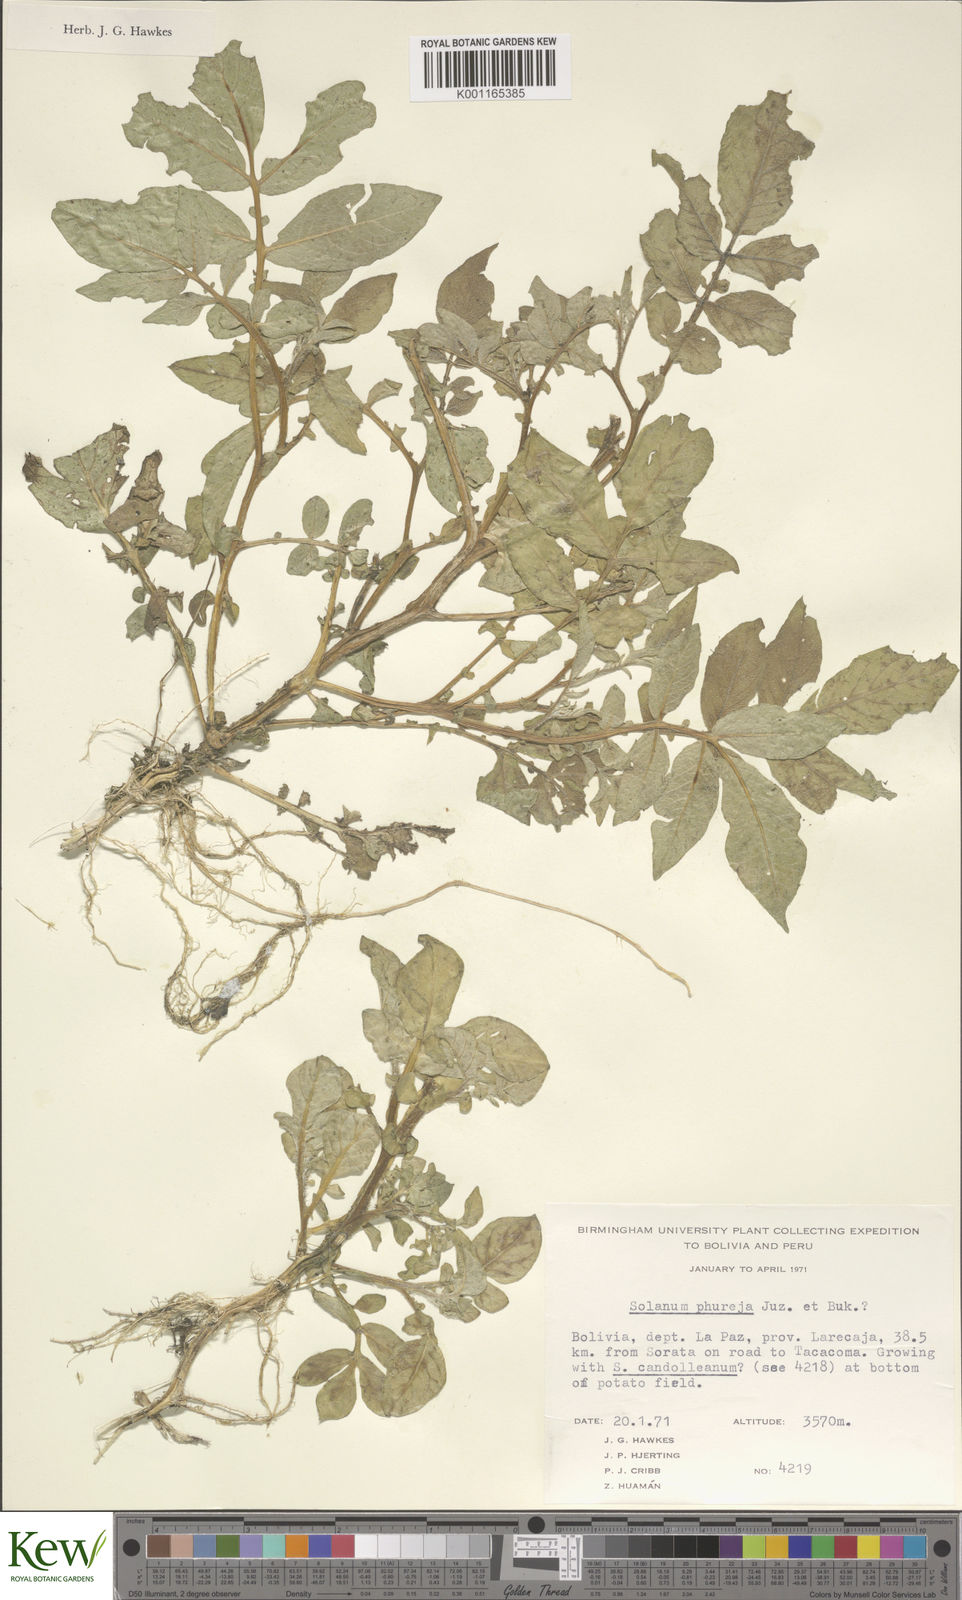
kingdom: Plantae
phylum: Tracheophyta
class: Magnoliopsida
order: Solanales
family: Solanaceae
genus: Solanum
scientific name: Solanum tuberosum
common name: Potato
